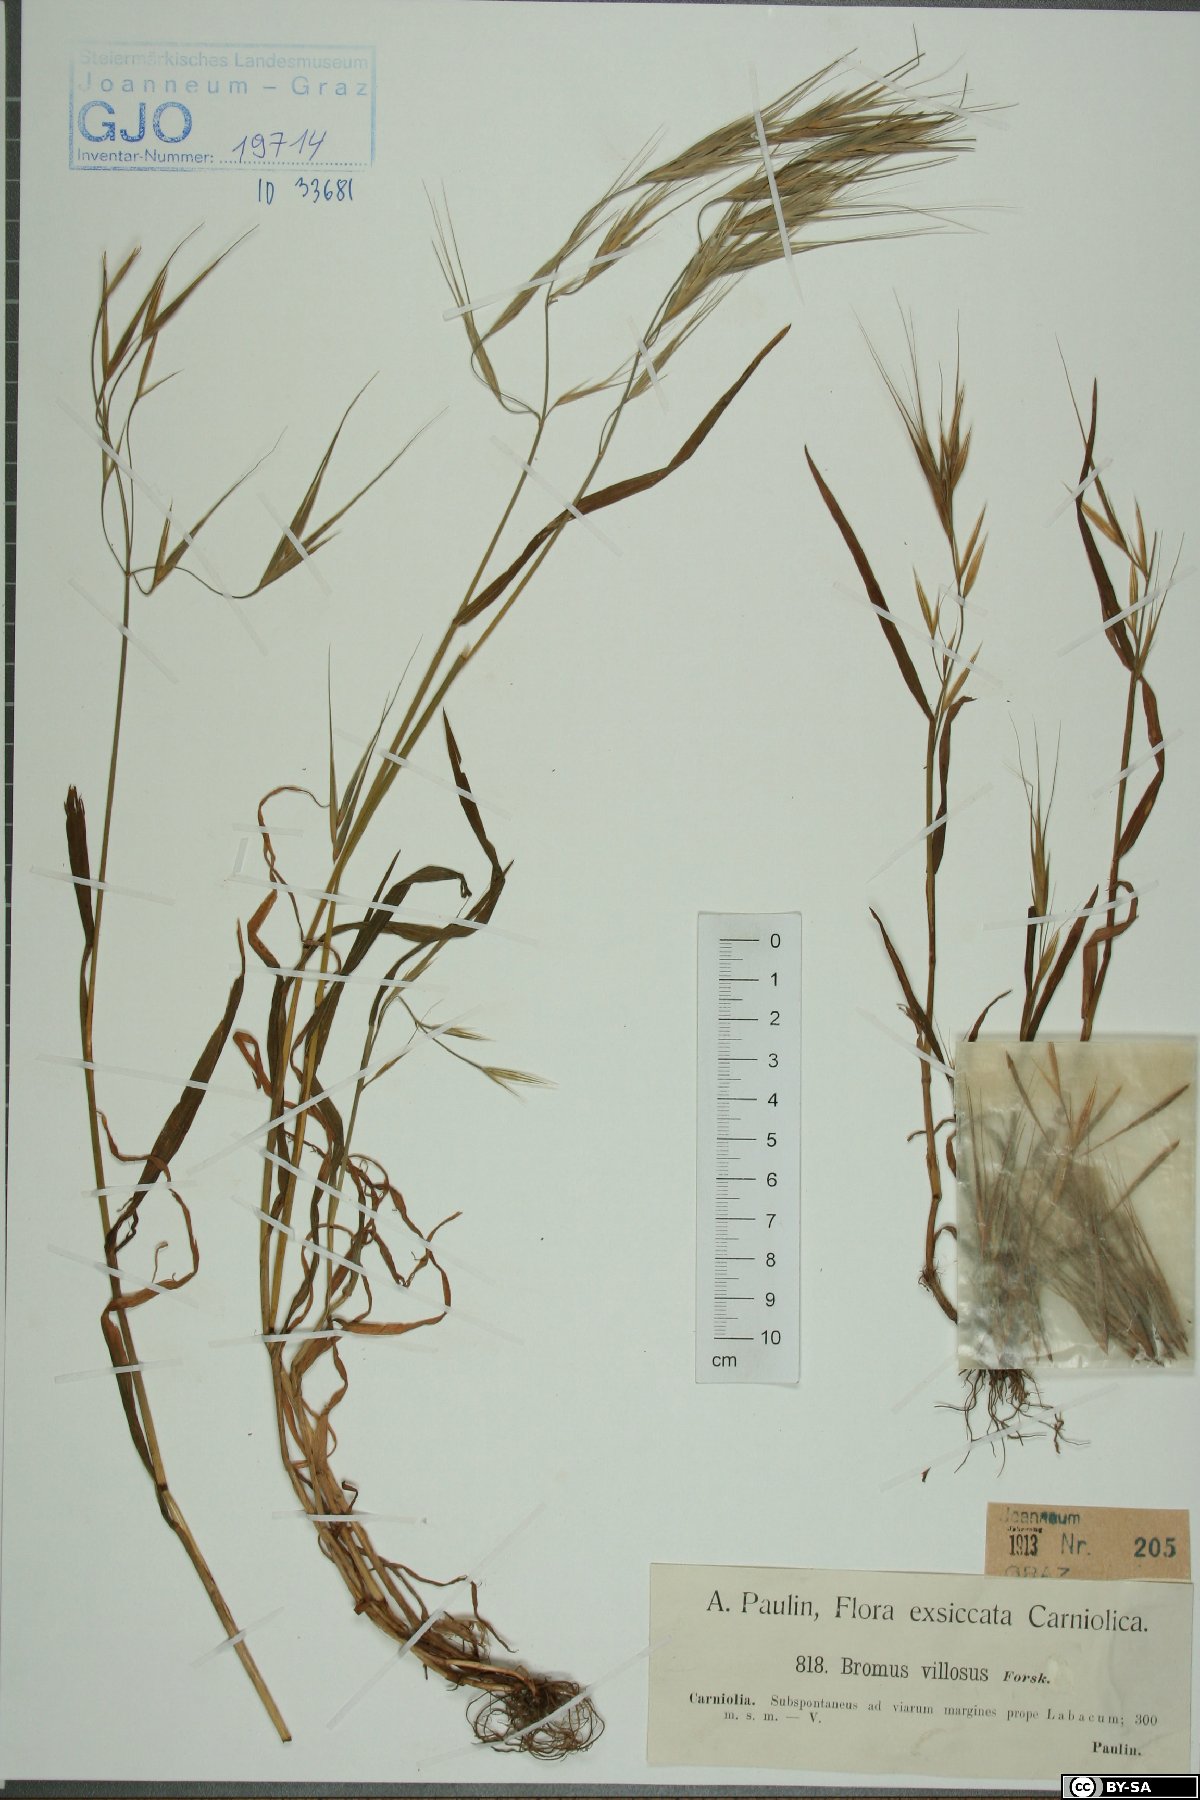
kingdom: Plantae
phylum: Tracheophyta
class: Liliopsida
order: Poales
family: Poaceae
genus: Bromus
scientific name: Bromus squarrosus
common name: Corn brome
